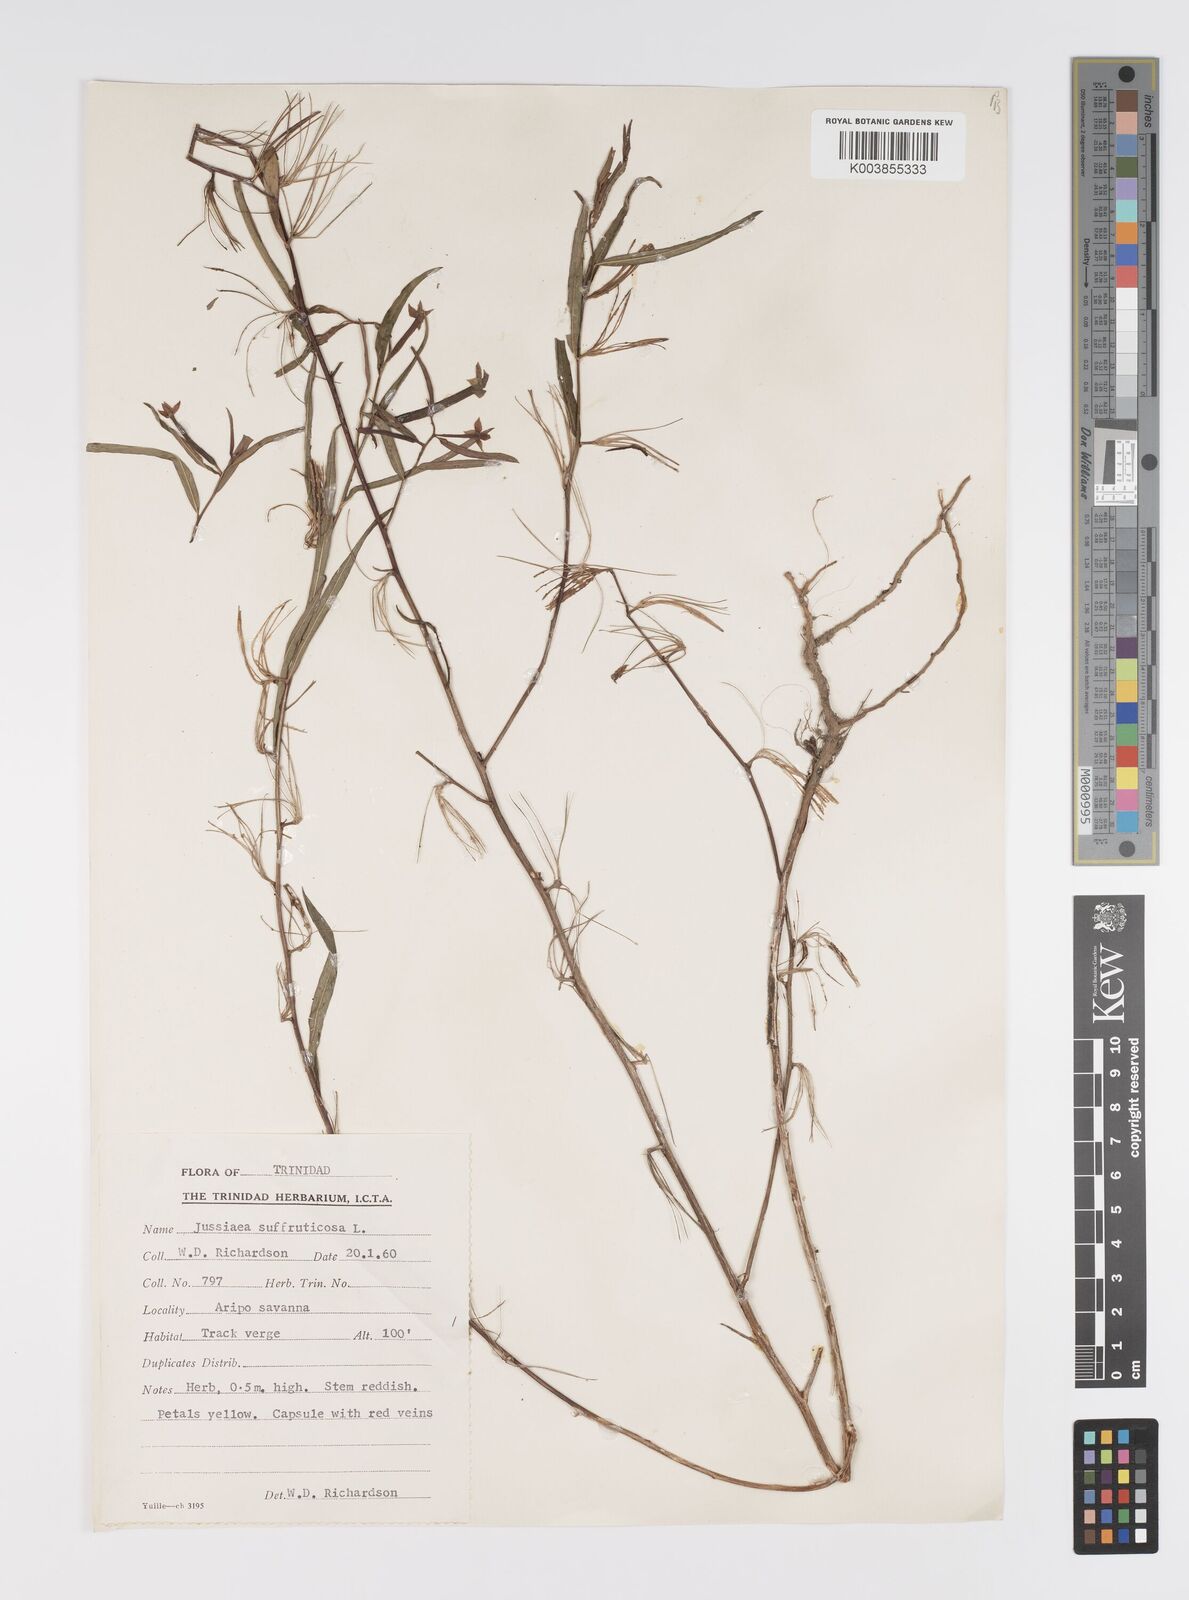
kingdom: Plantae
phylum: Tracheophyta
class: Magnoliopsida
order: Myrtales
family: Onagraceae
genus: Ludwigia
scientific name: Ludwigia
